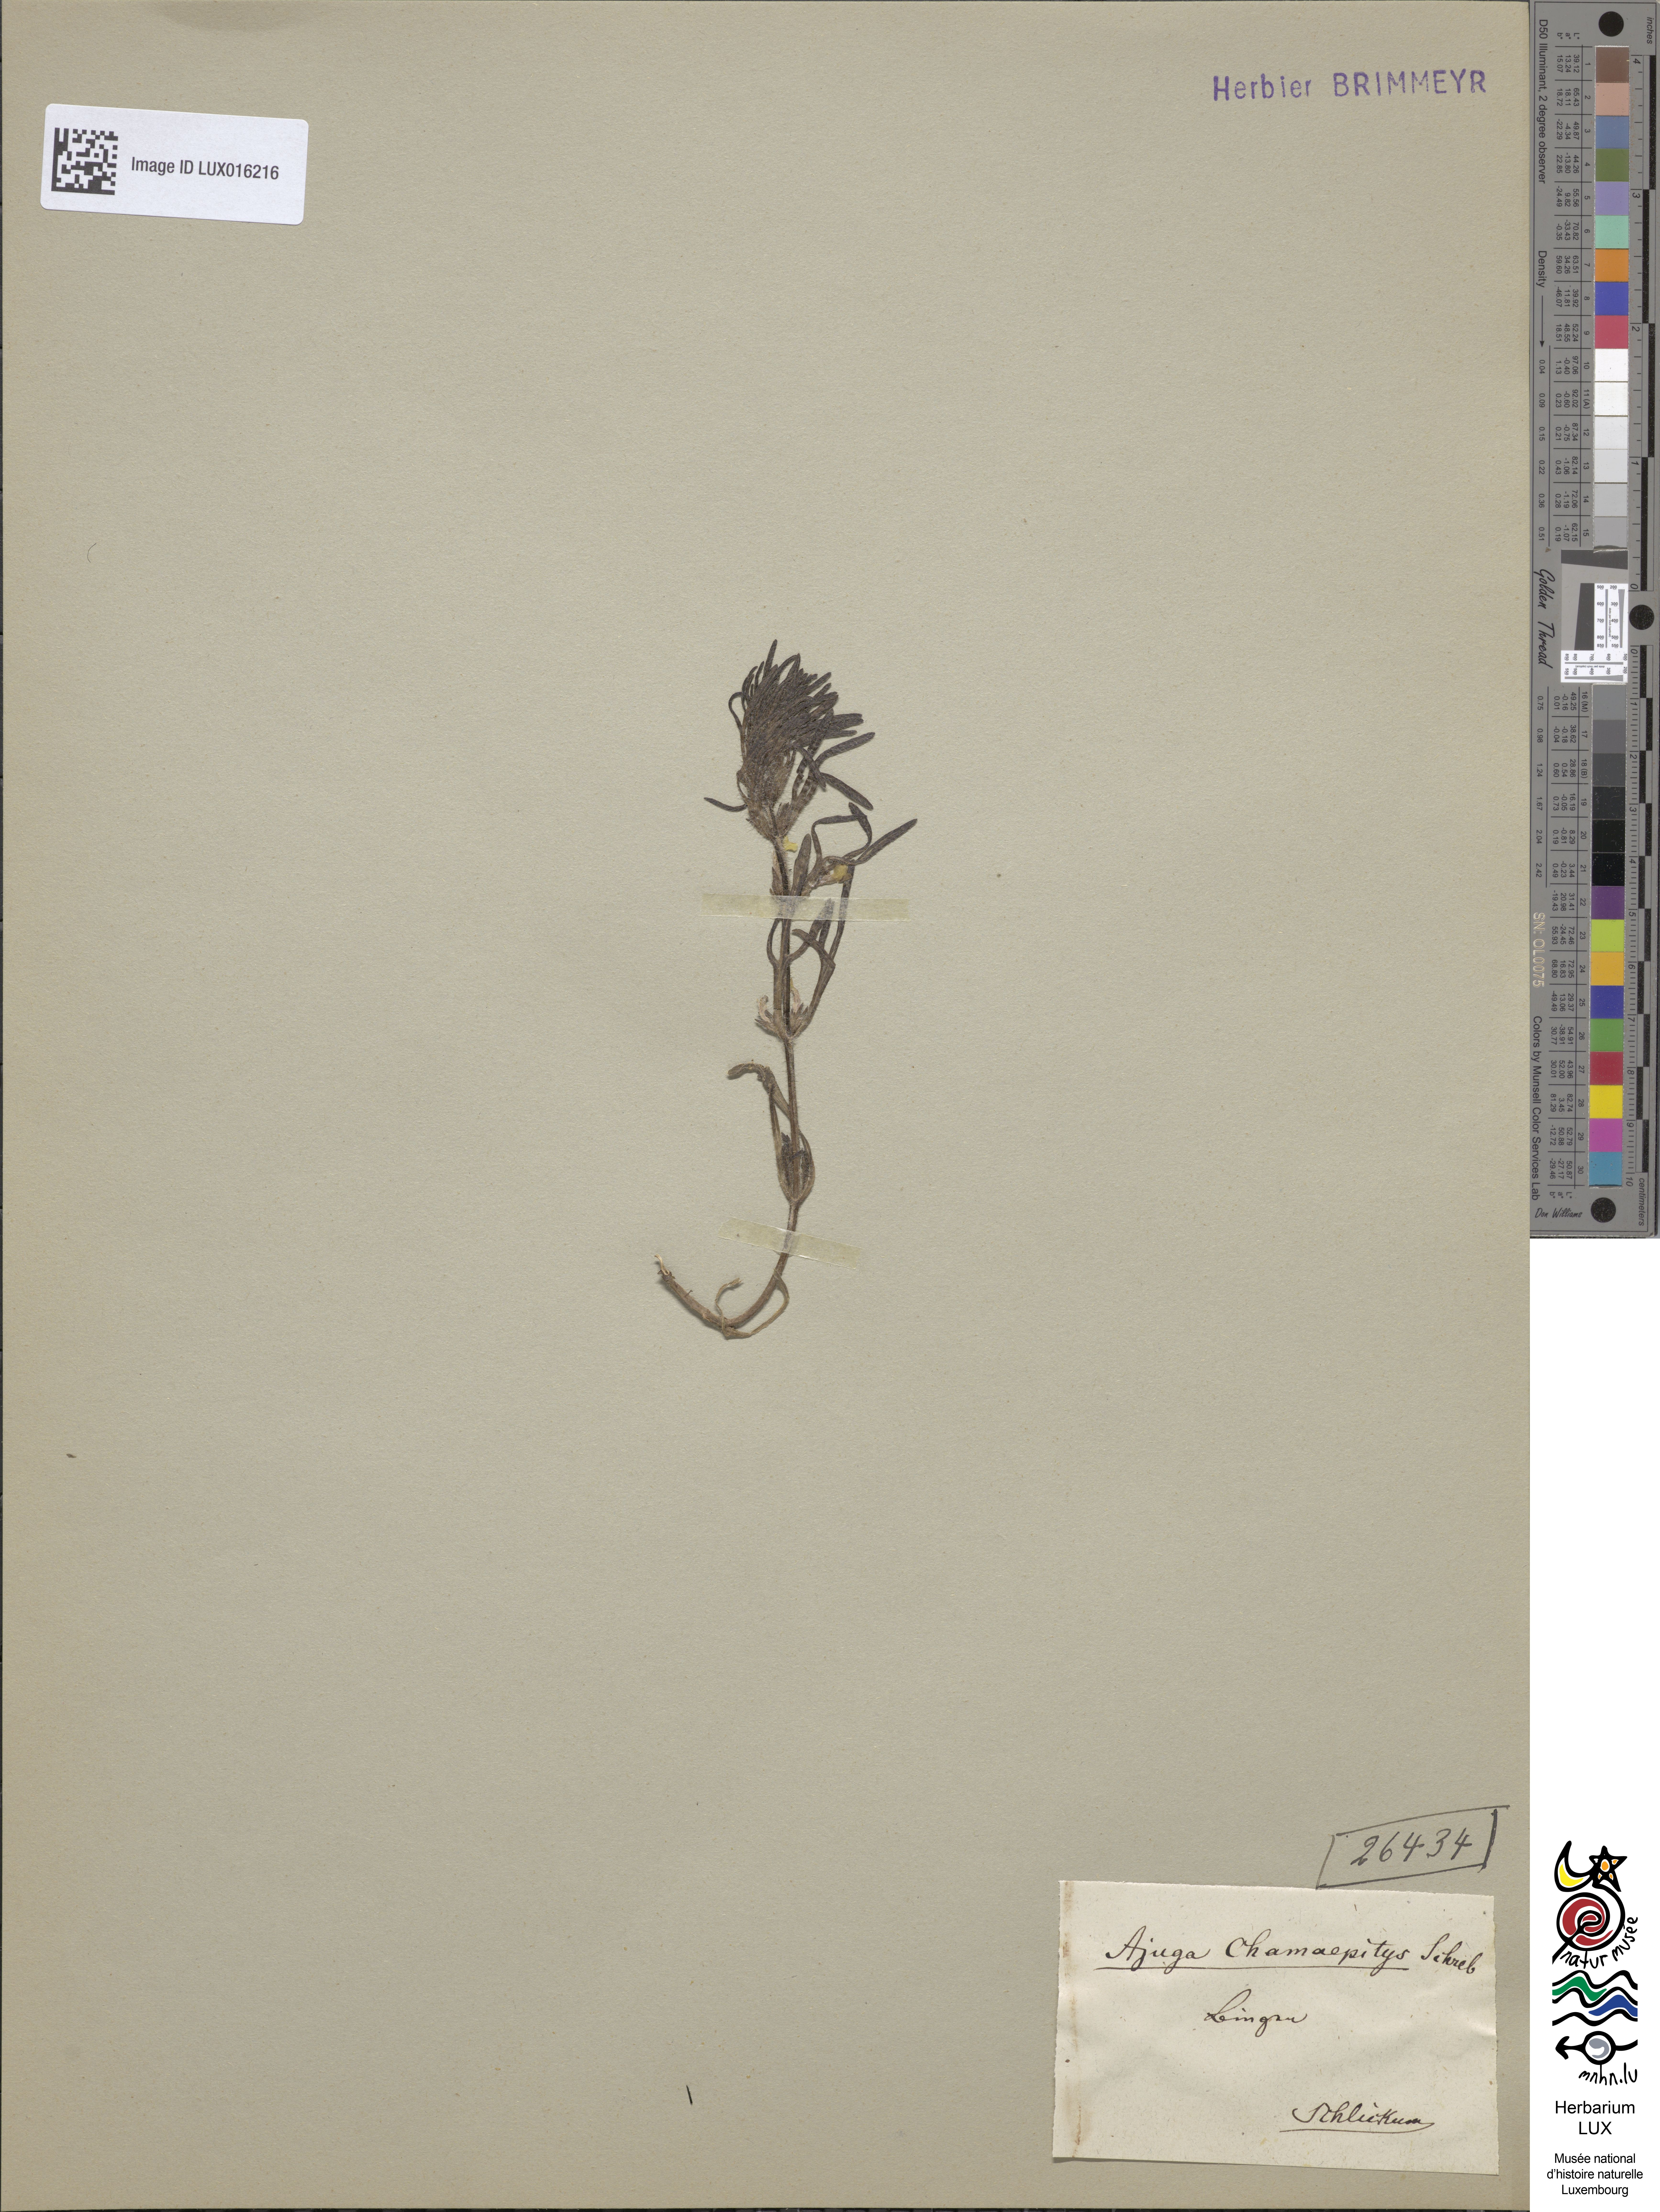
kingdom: Plantae
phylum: Tracheophyta
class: Magnoliopsida
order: Lamiales
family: Lamiaceae
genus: Ajuga
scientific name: Ajuga chamaepitys
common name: Ground-pine
